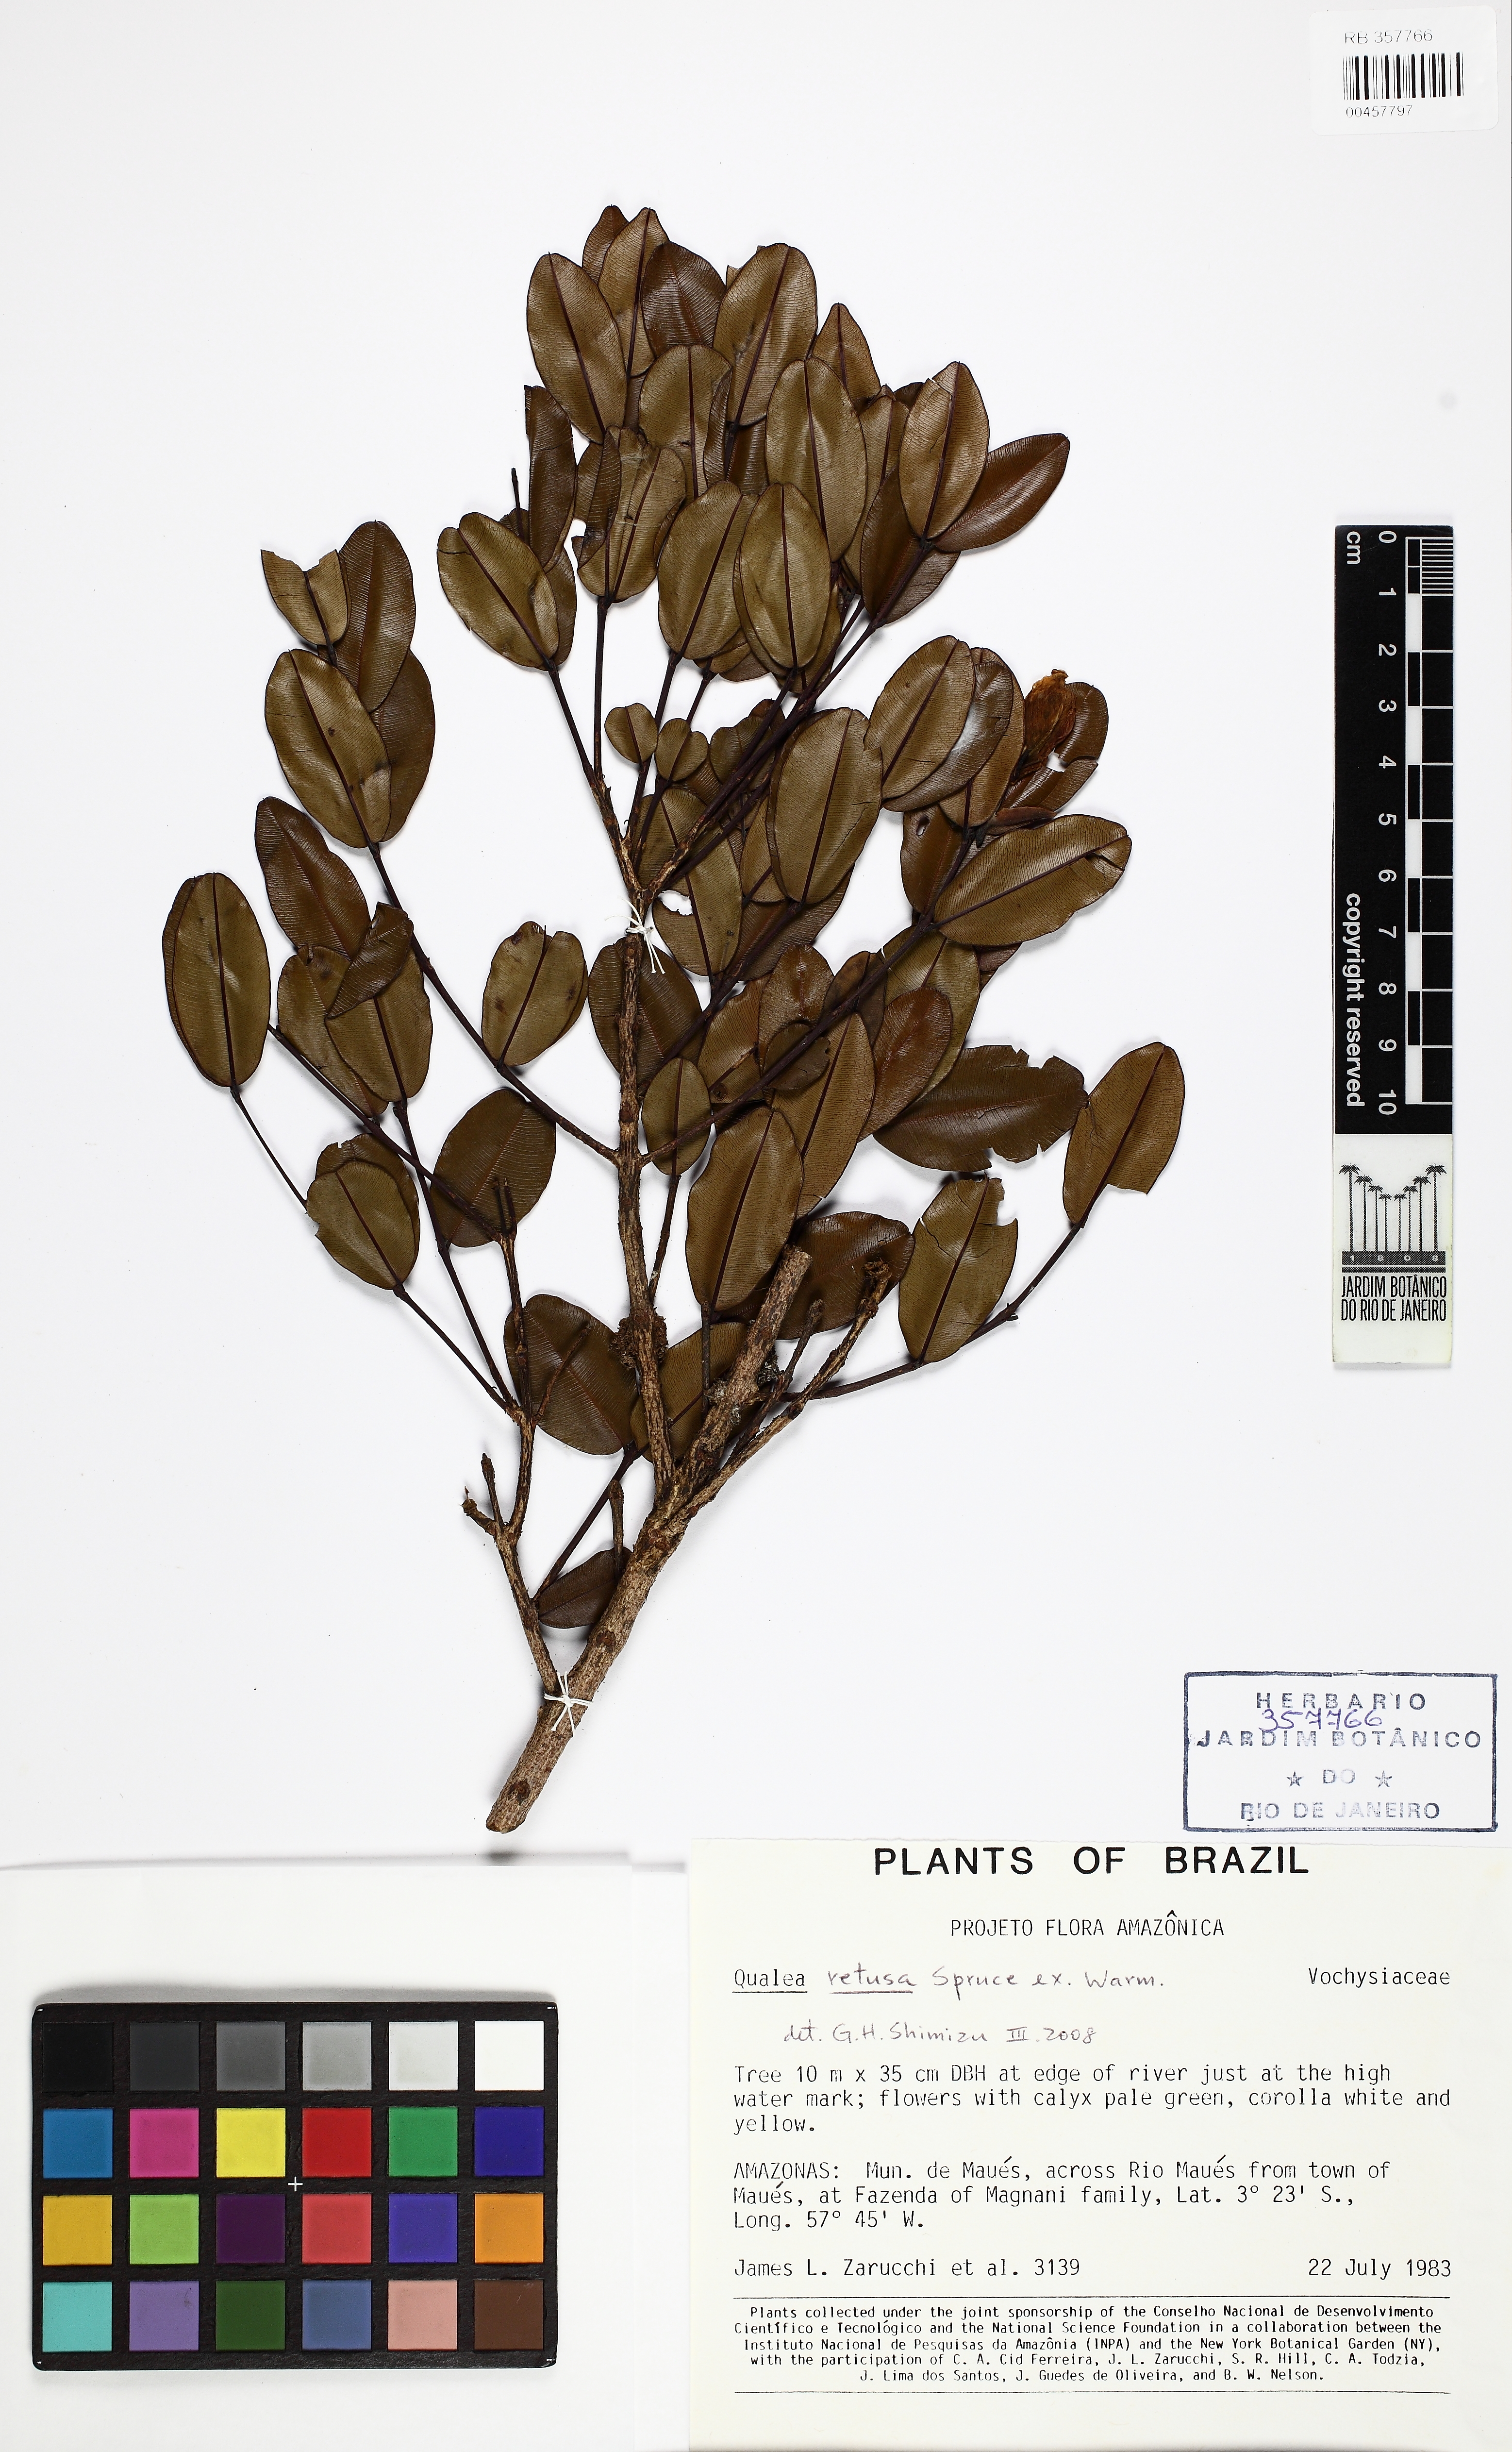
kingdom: Plantae
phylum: Tracheophyta
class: Magnoliopsida
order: Myrtales
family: Vochysiaceae
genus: Ruizterania
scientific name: Ruizterania retusa
